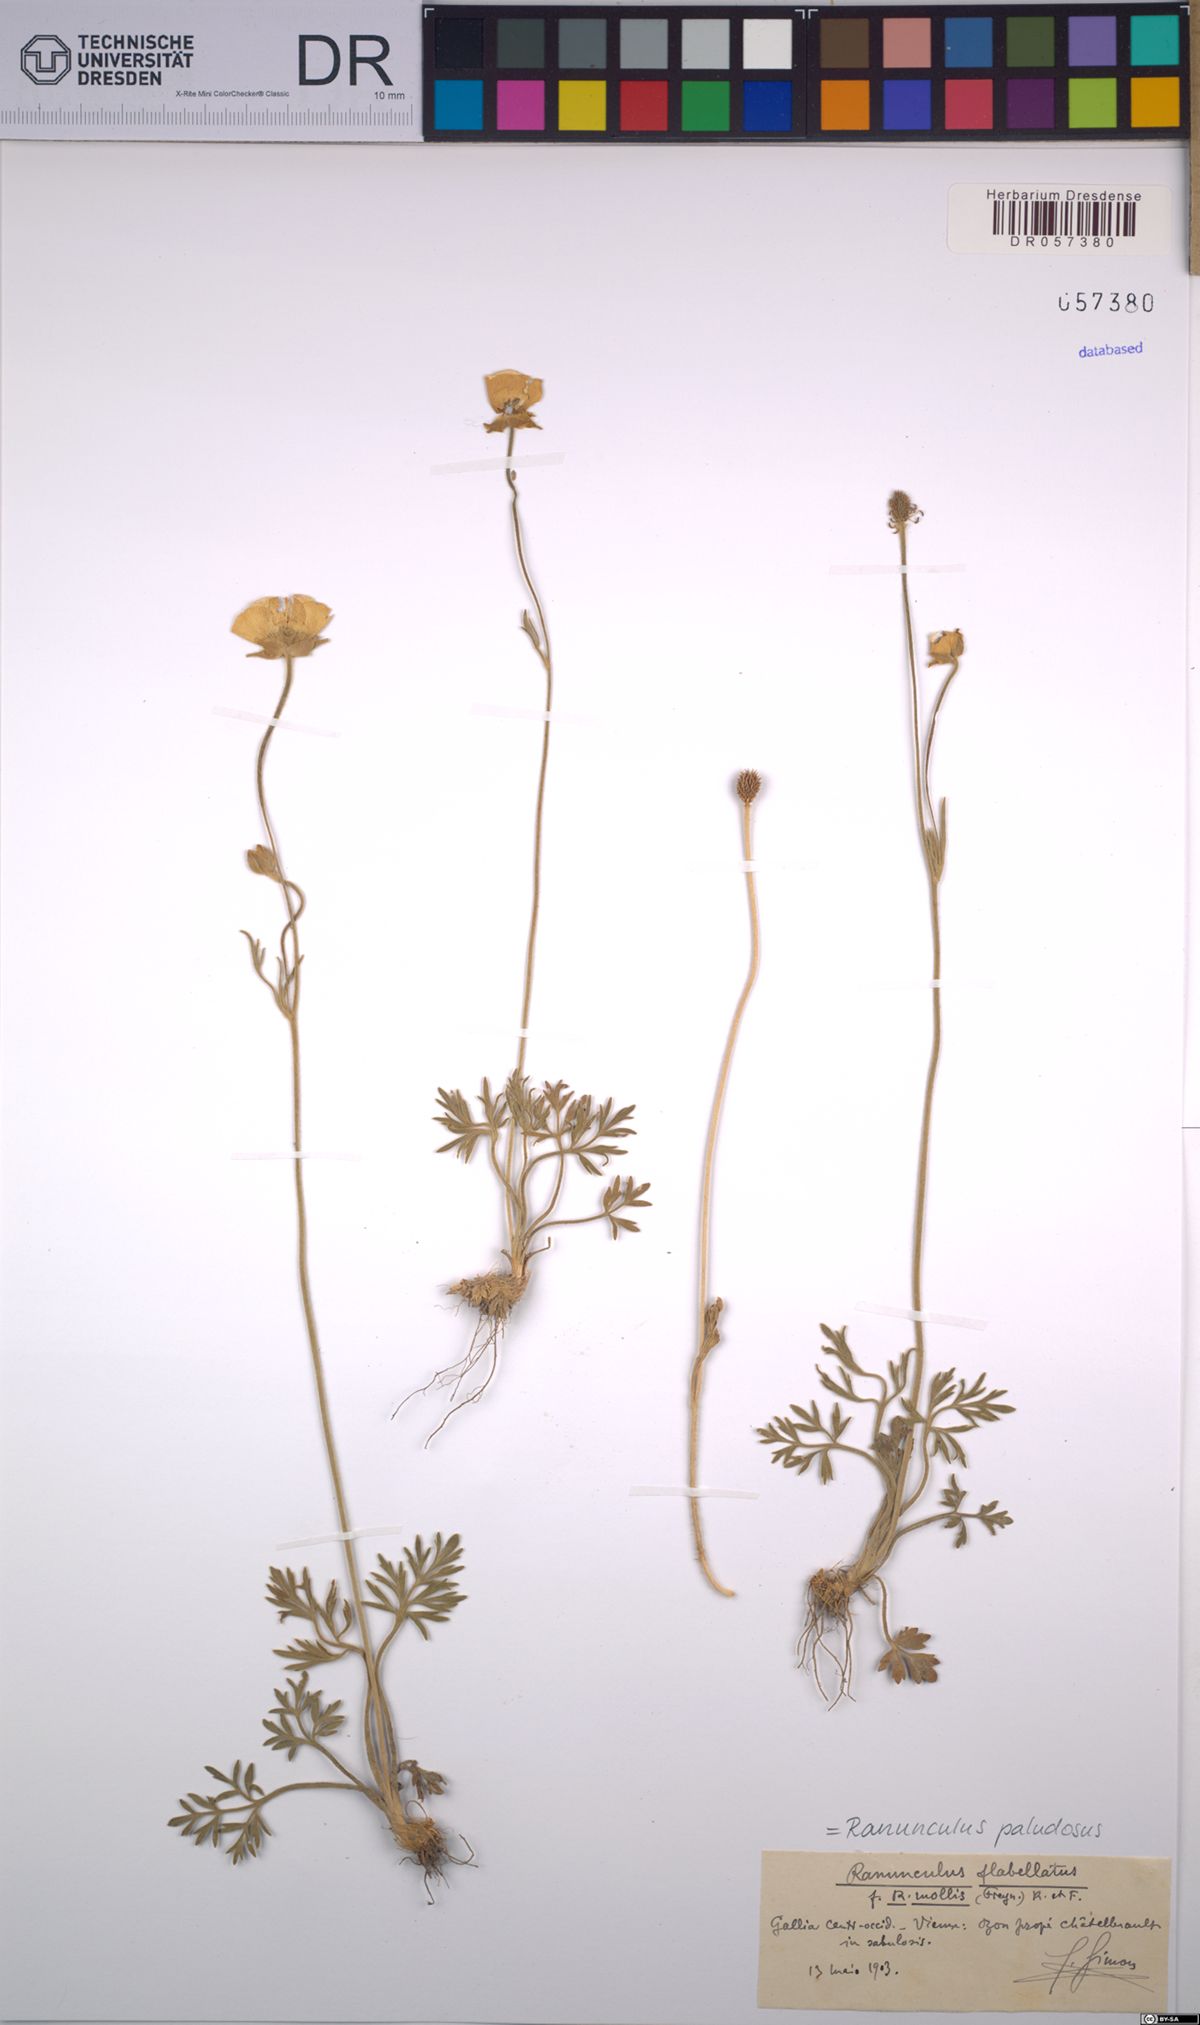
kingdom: Plantae
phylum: Tracheophyta
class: Magnoliopsida
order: Ranunculales
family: Ranunculaceae
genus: Ranunculus
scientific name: Ranunculus paludosus
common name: Jersey buttercup
